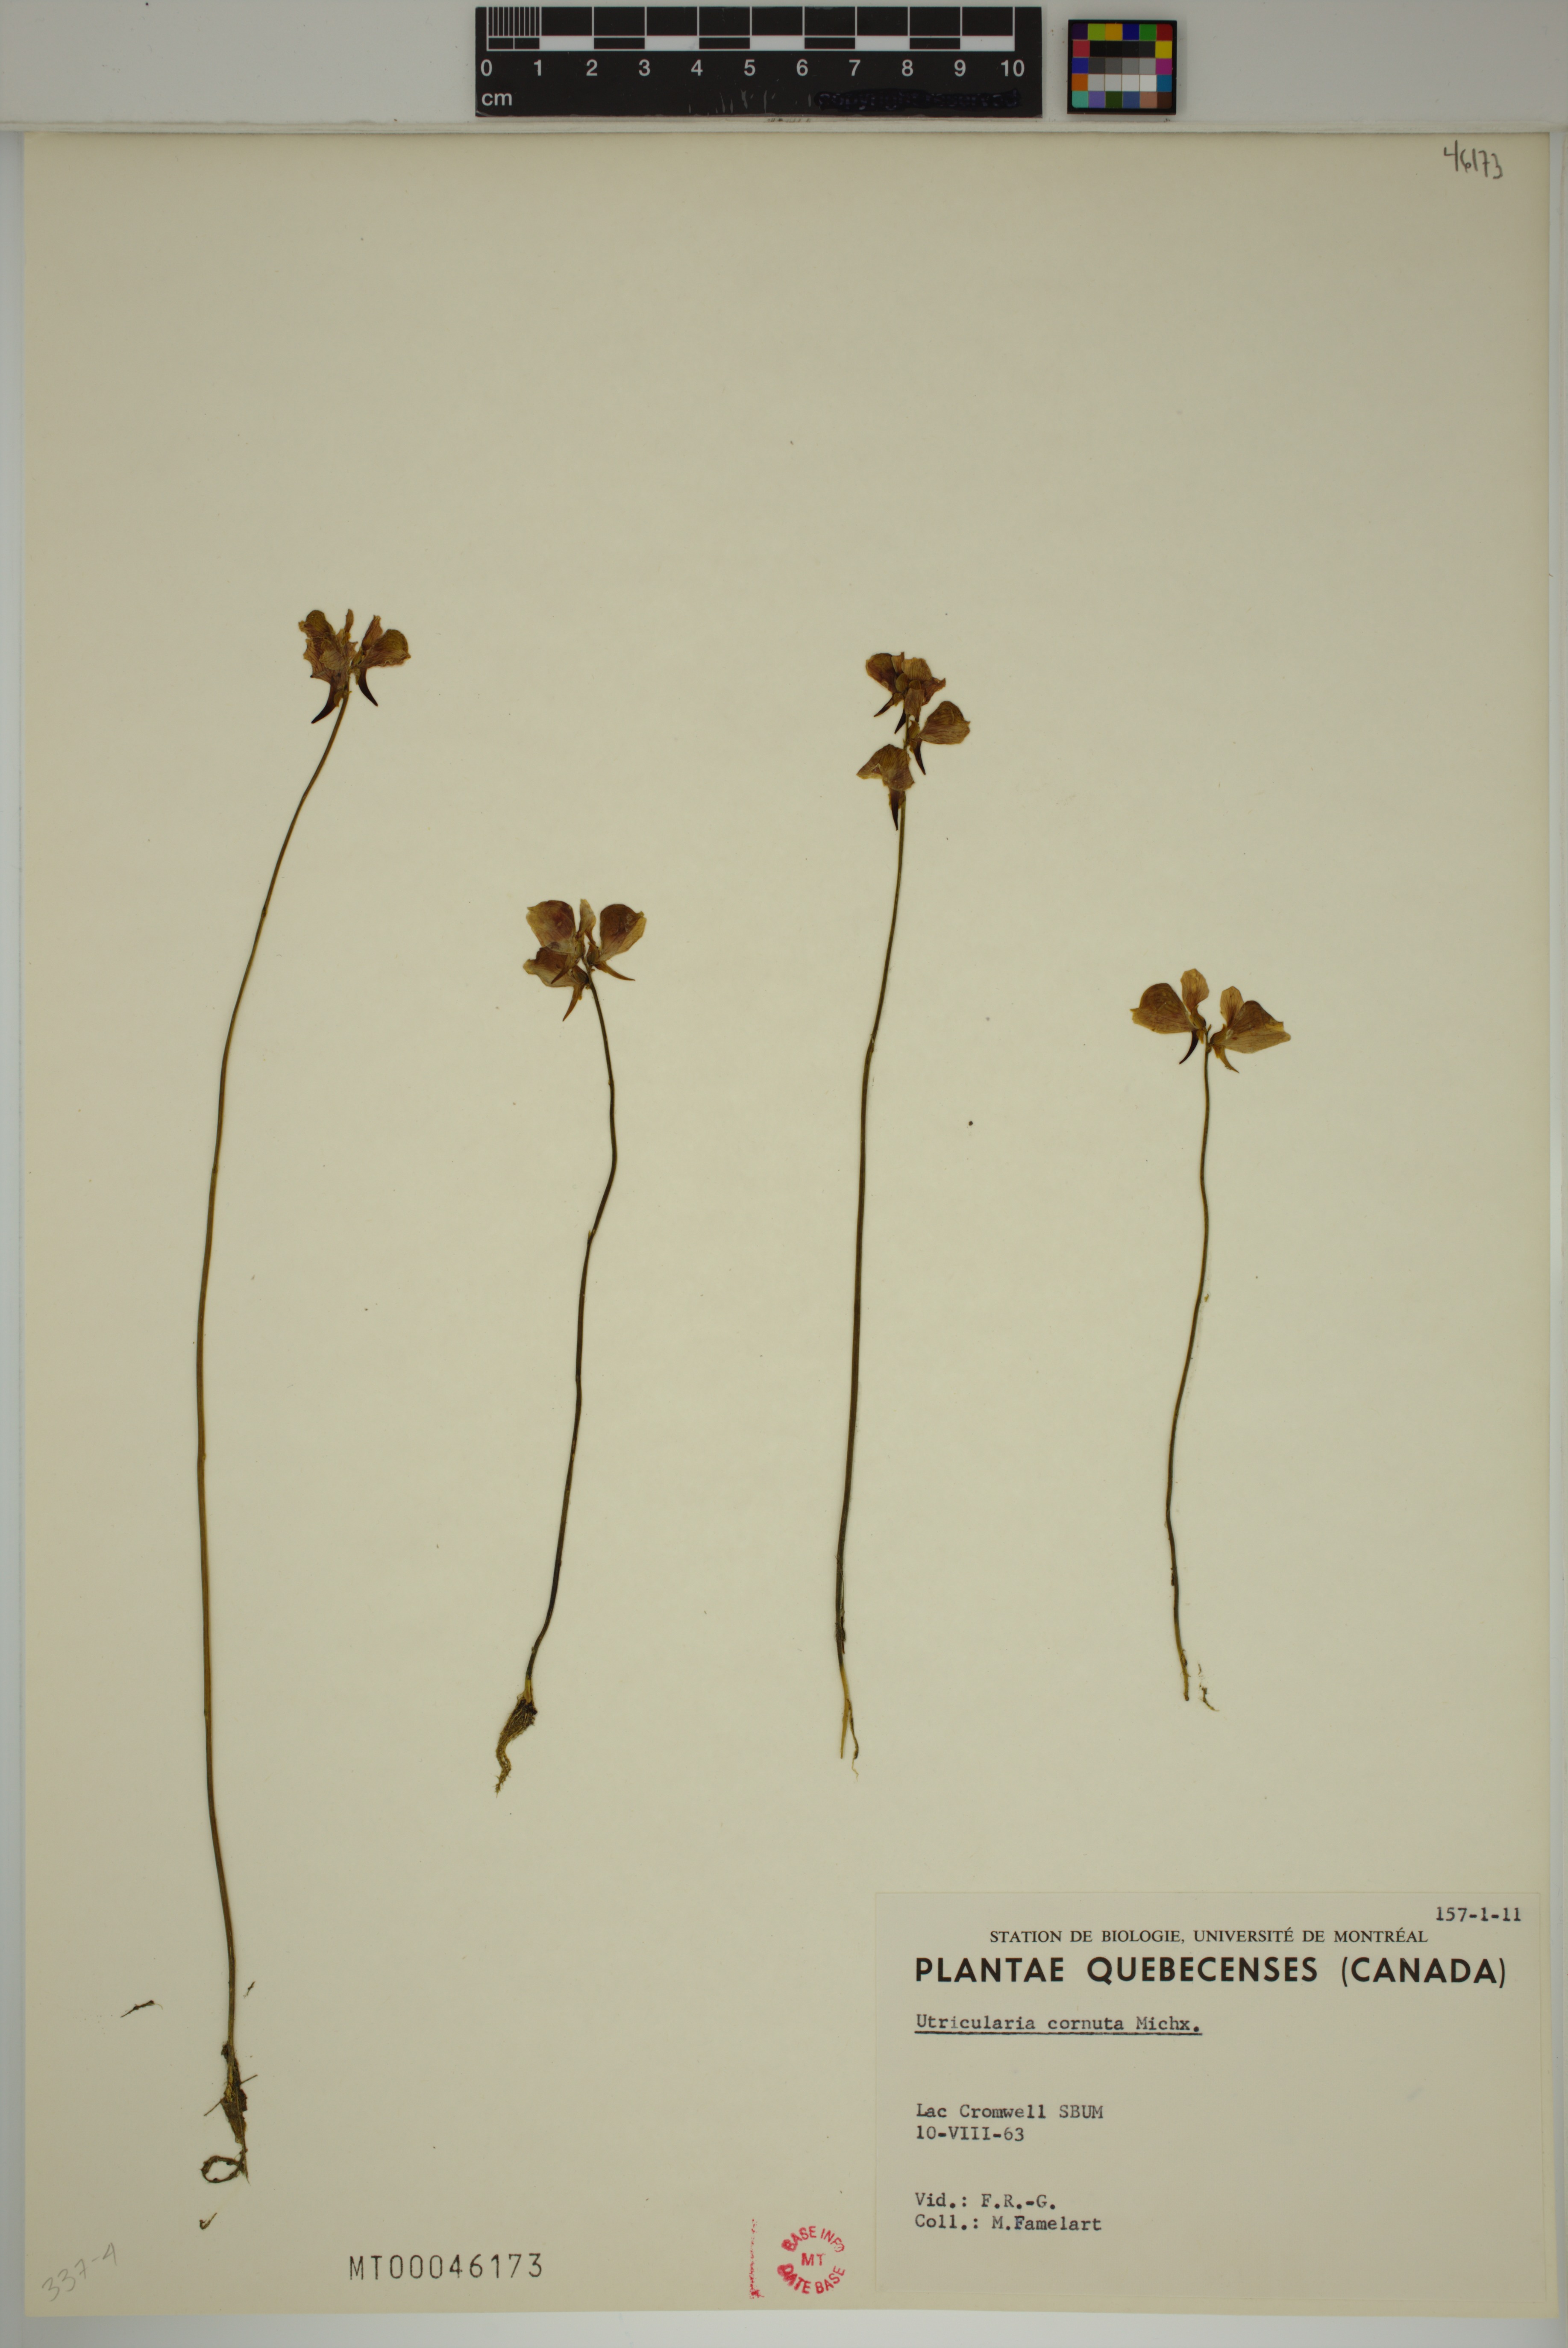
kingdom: Plantae
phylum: Tracheophyta
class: Magnoliopsida
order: Lamiales
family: Lentibulariaceae
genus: Utricularia
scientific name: Utricularia cornuta
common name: Horned bladderwort
